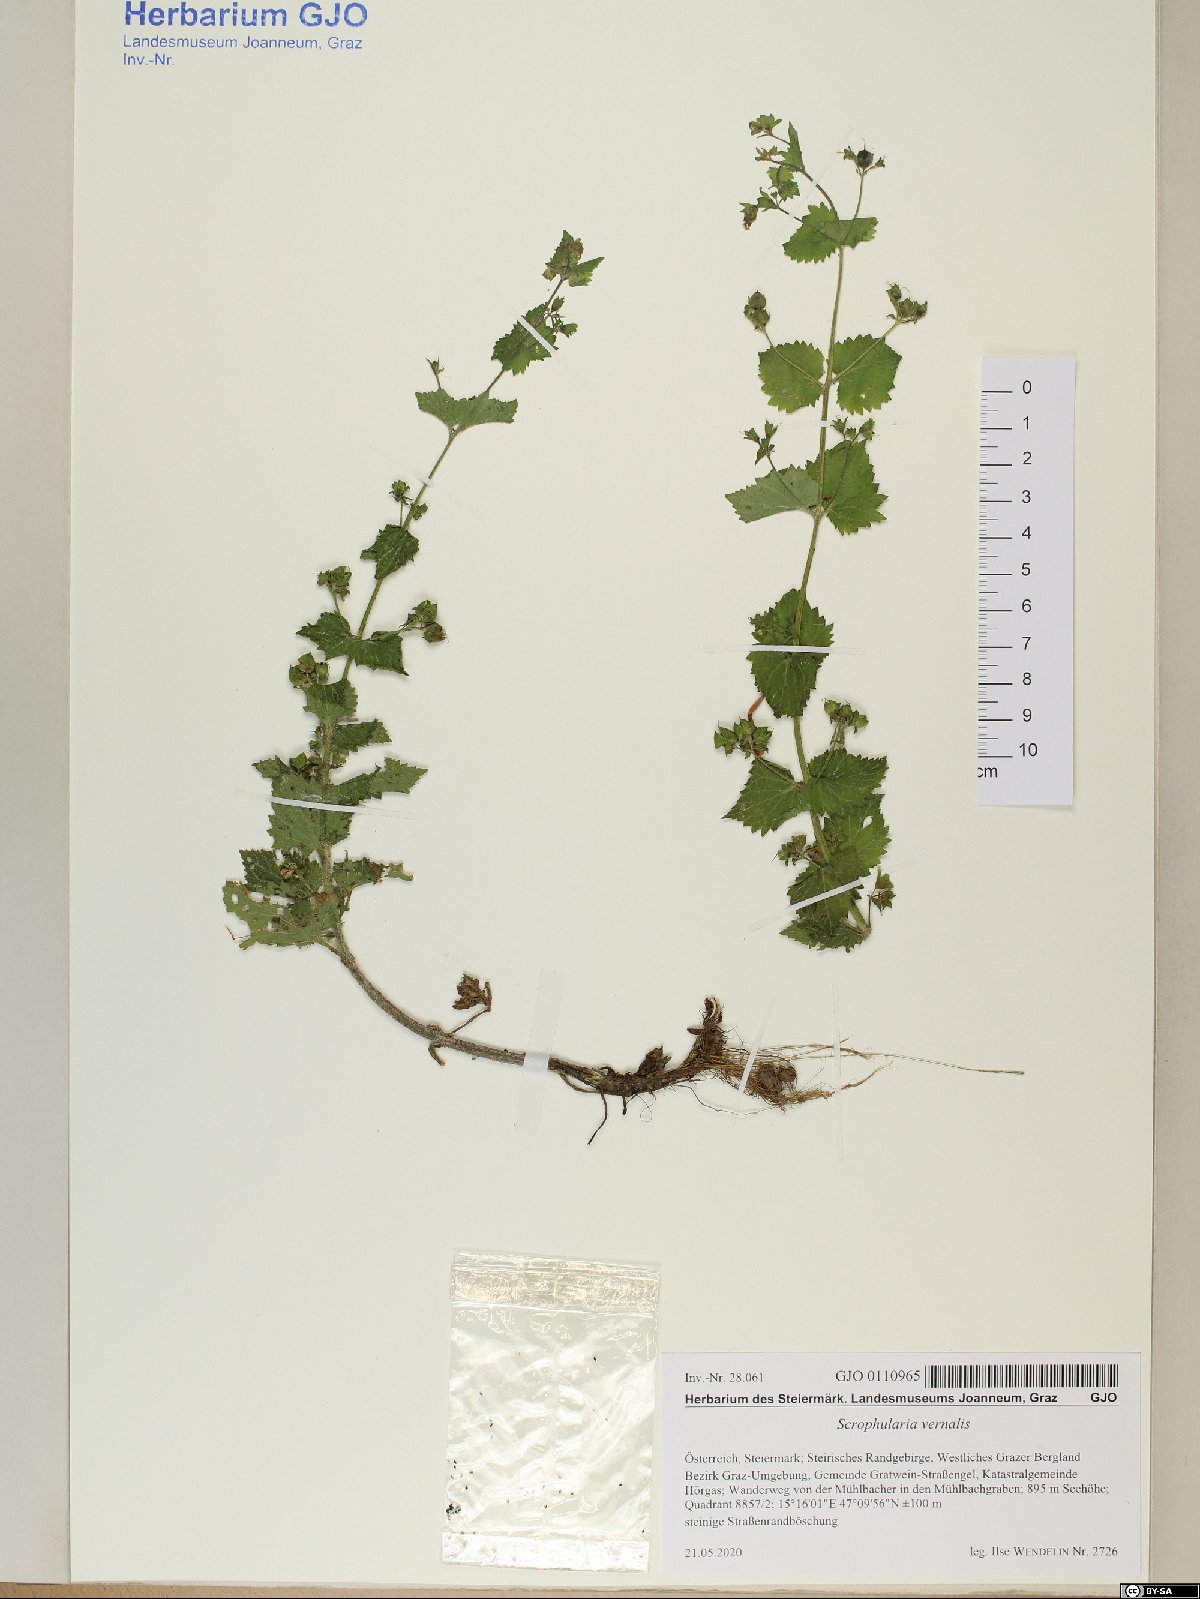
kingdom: Plantae
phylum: Tracheophyta
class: Magnoliopsida
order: Lamiales
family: Scrophulariaceae
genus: Scrophularia
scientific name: Scrophularia vernalis
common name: Yellow figwort
